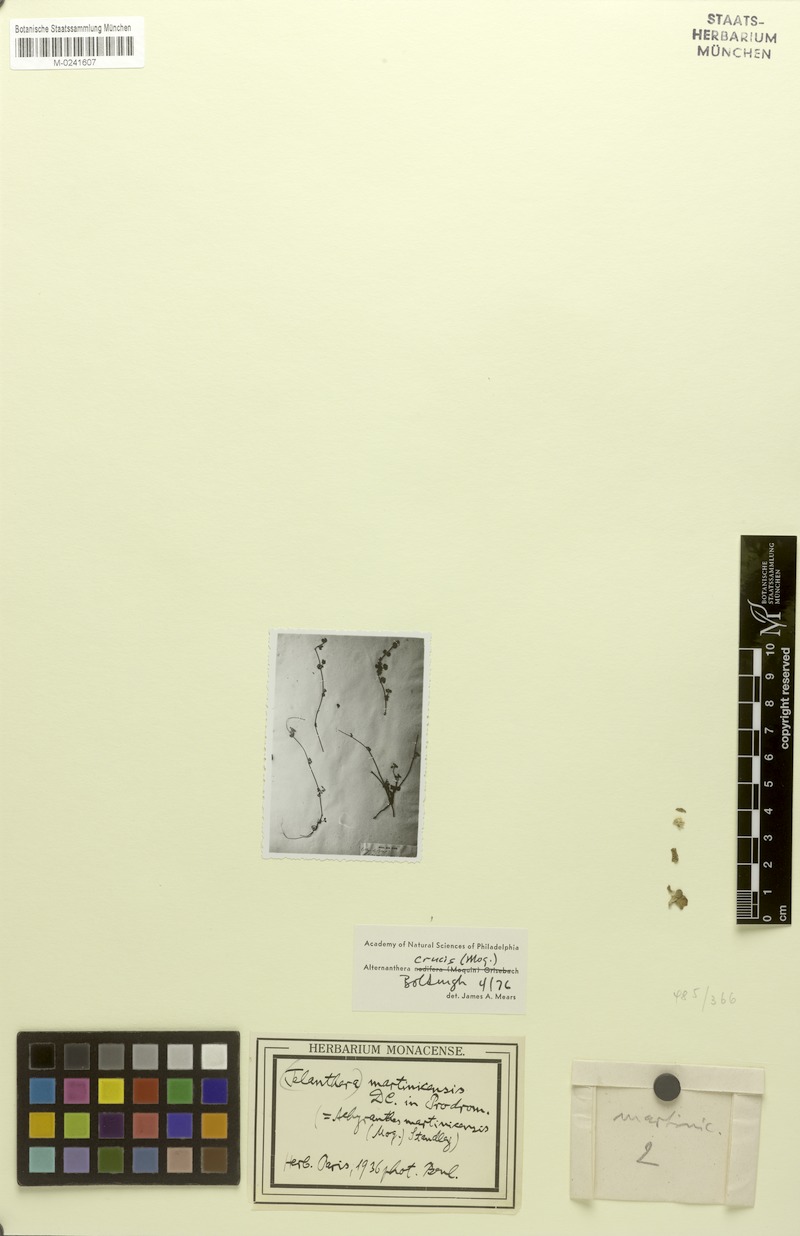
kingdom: Plantae
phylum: Tracheophyta
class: Magnoliopsida
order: Caryophyllales
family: Amaranthaceae
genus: Alternanthera
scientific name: Alternanthera crucis
